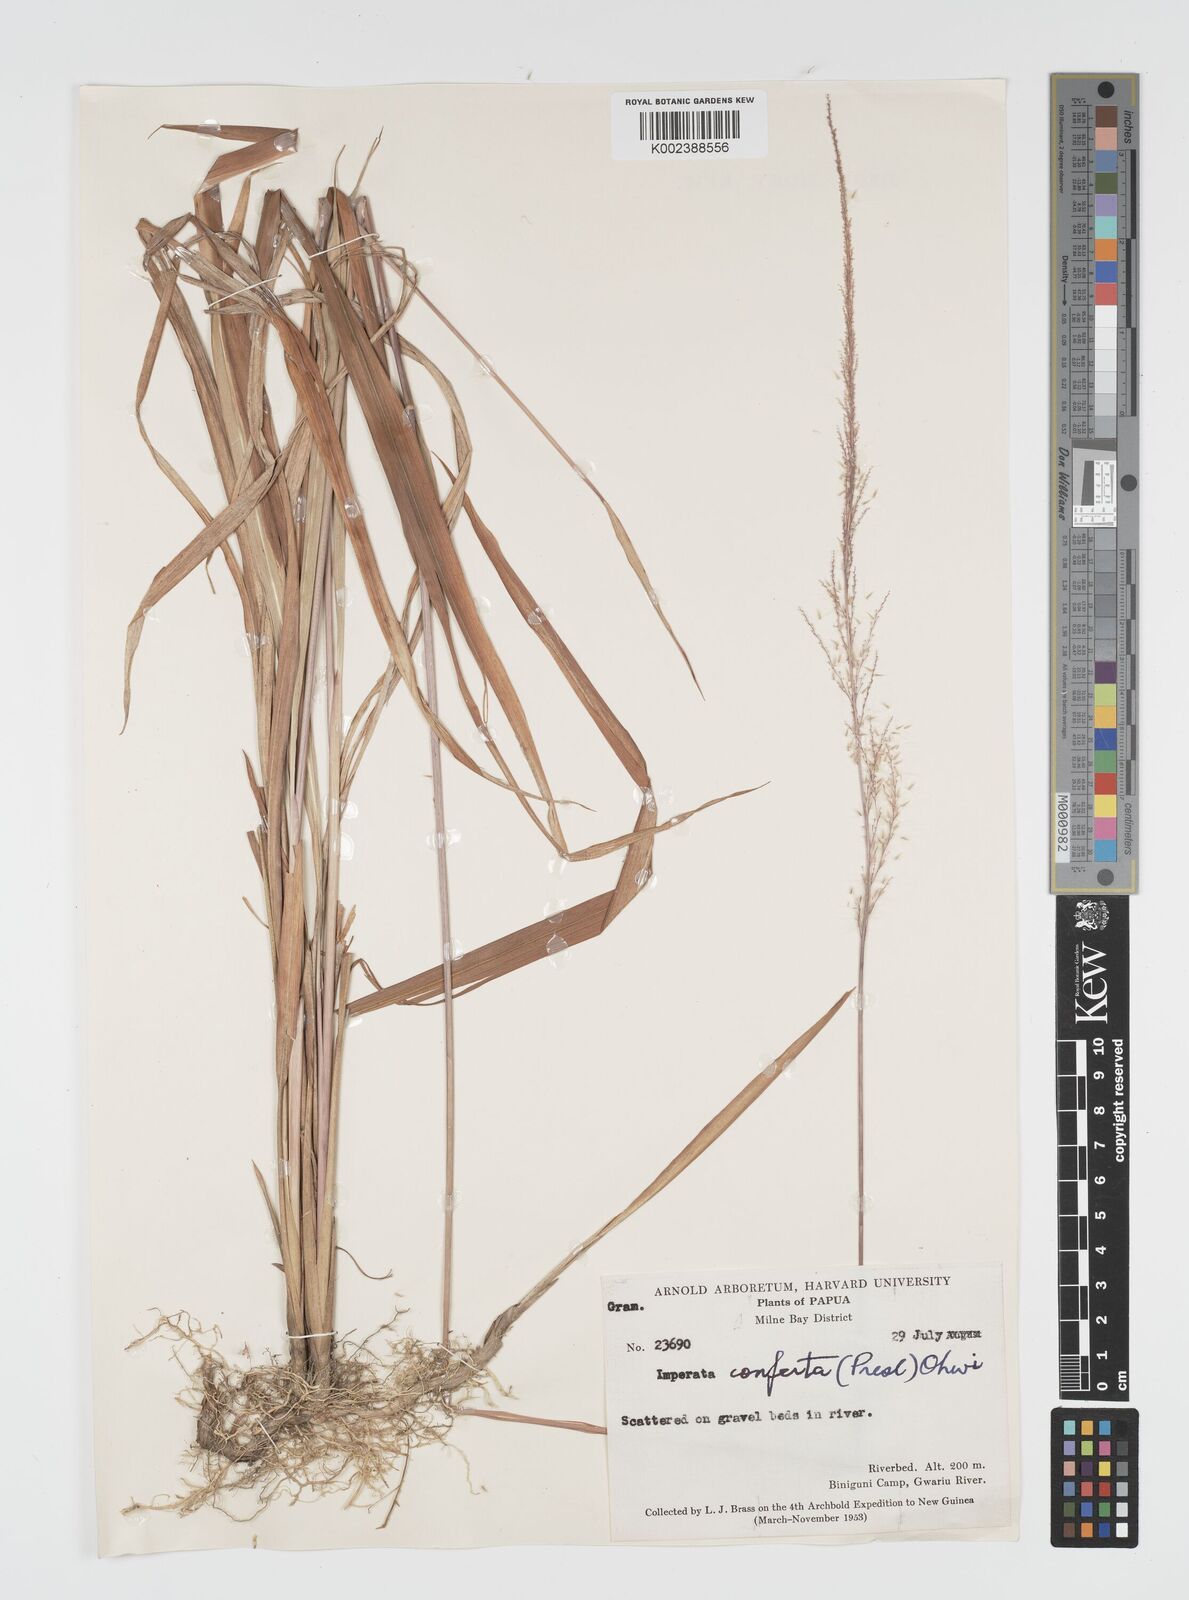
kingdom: Plantae
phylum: Tracheophyta
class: Liliopsida
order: Poales
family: Poaceae
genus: Imperata
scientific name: Imperata conferta
